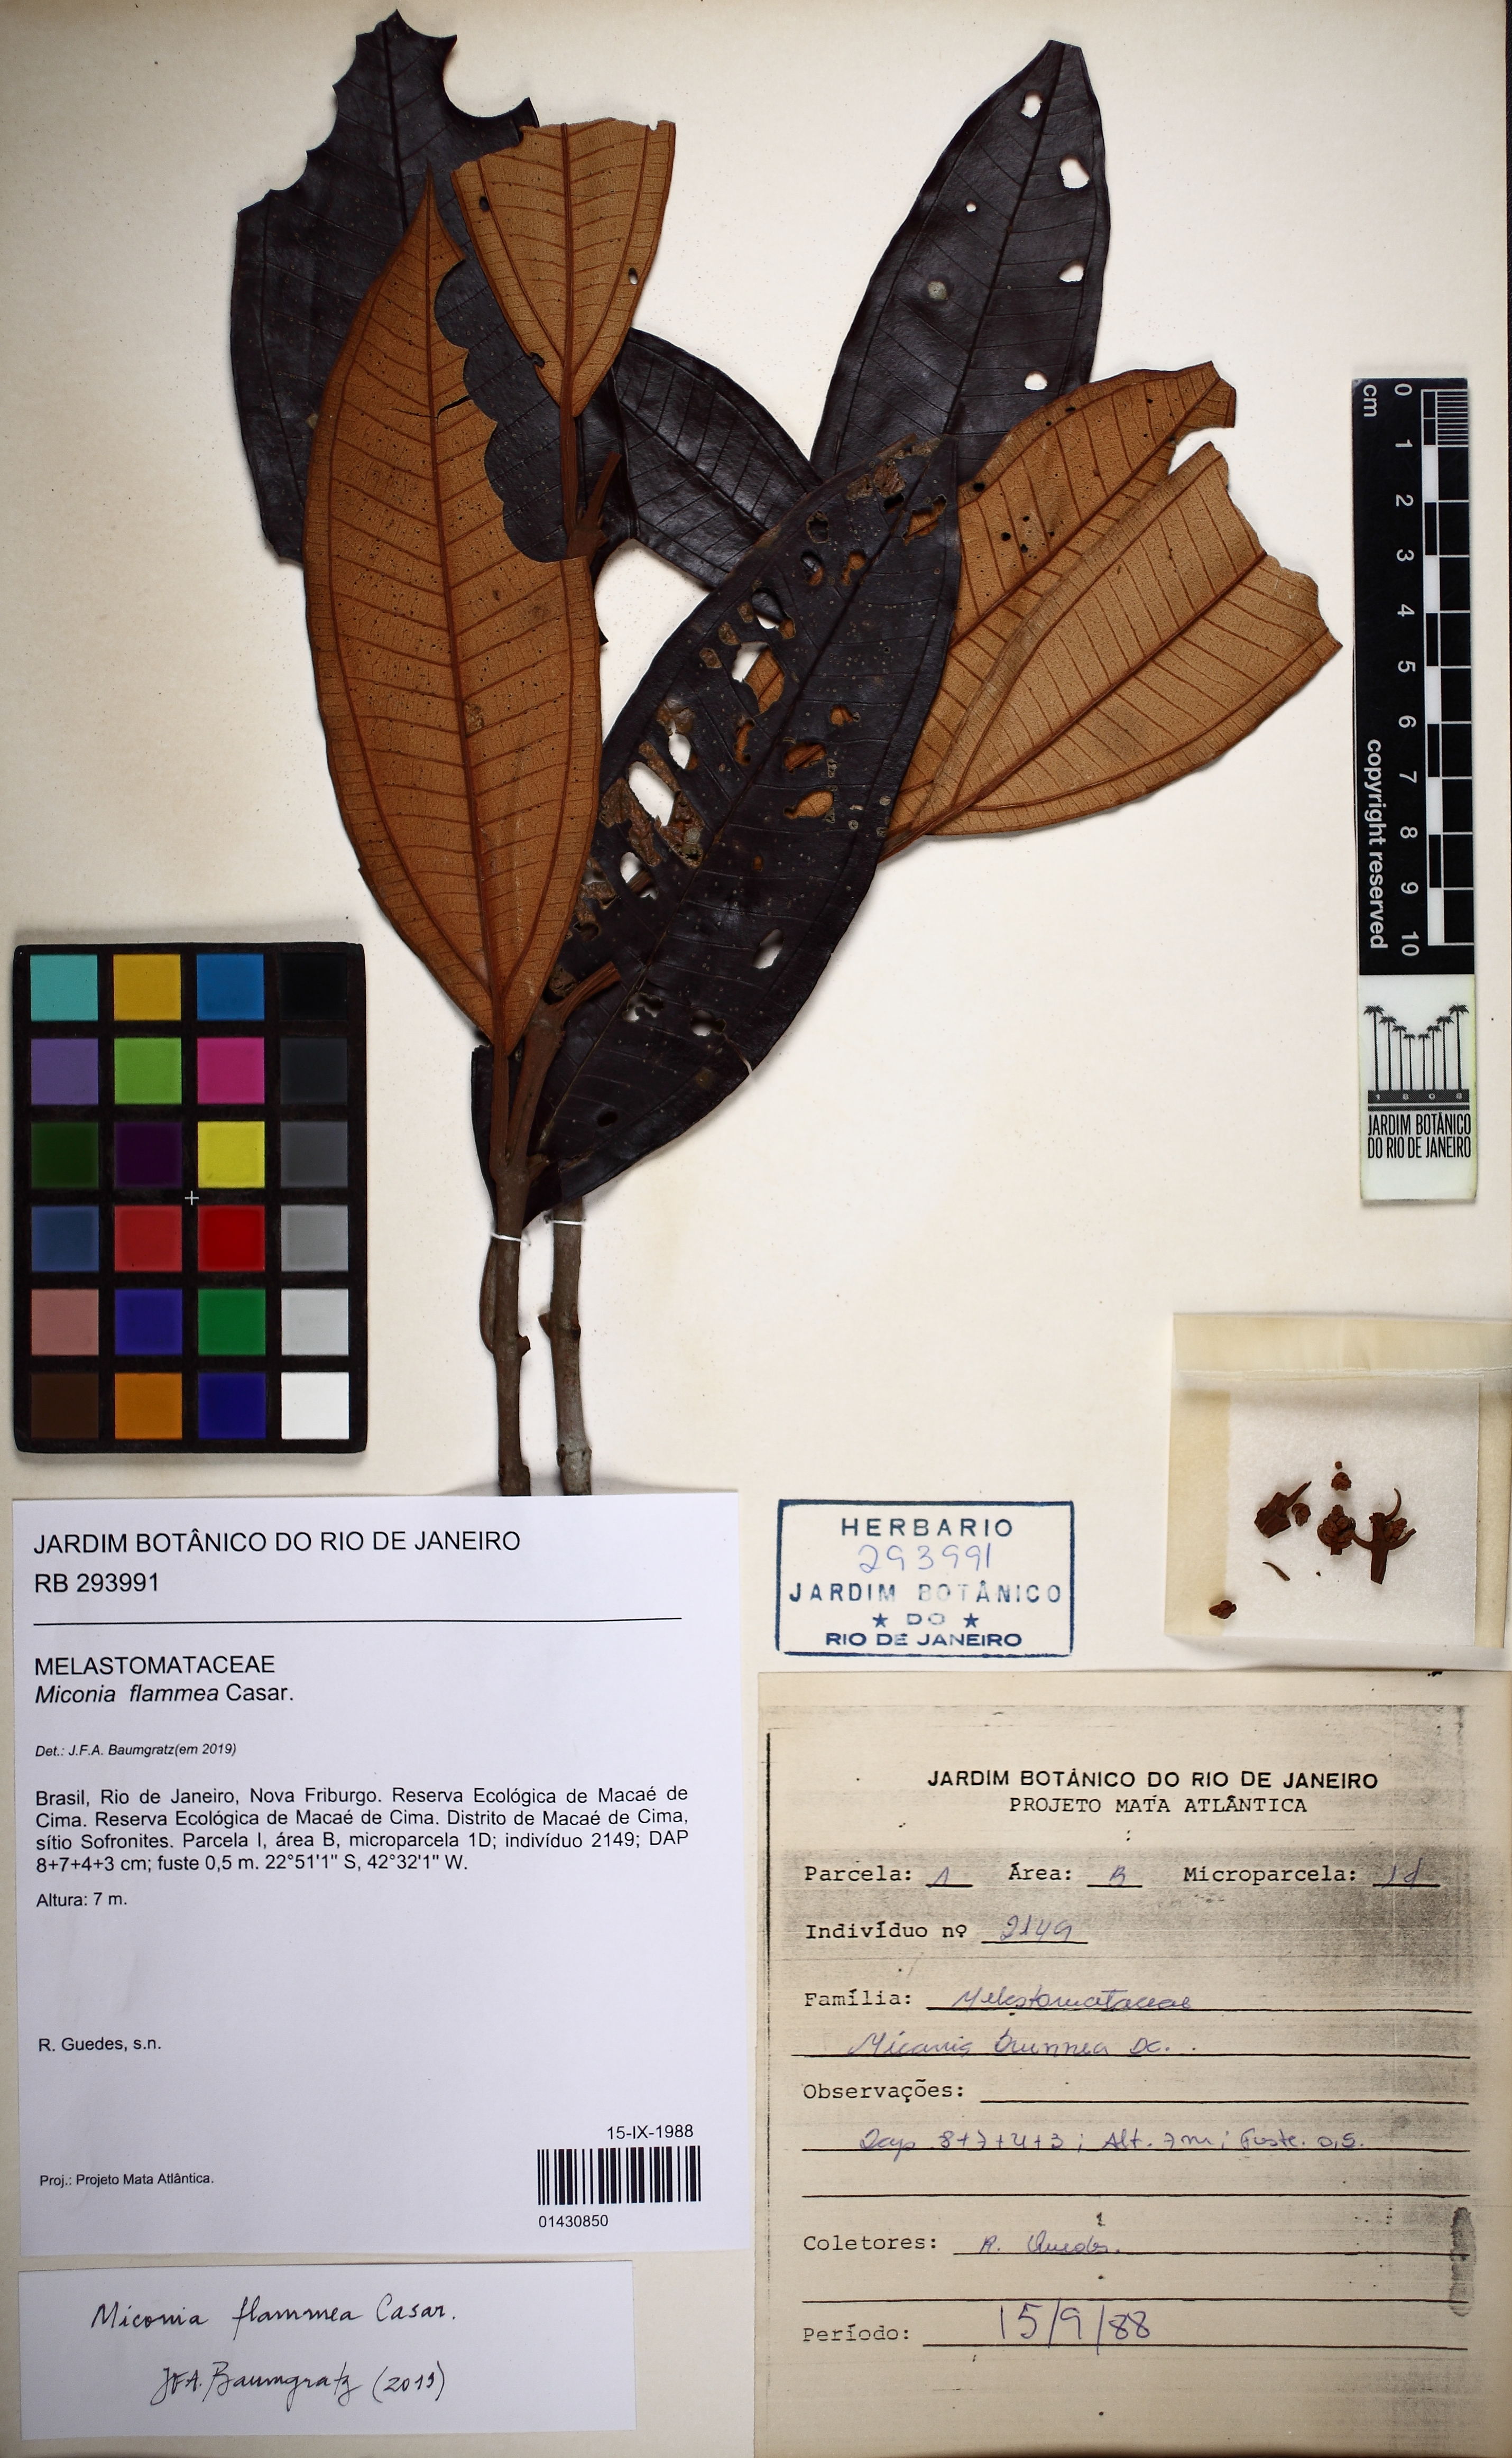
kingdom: Plantae
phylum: Tracheophyta
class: Magnoliopsida
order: Myrtales
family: Melastomataceae
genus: Miconia
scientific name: Miconia flammea
